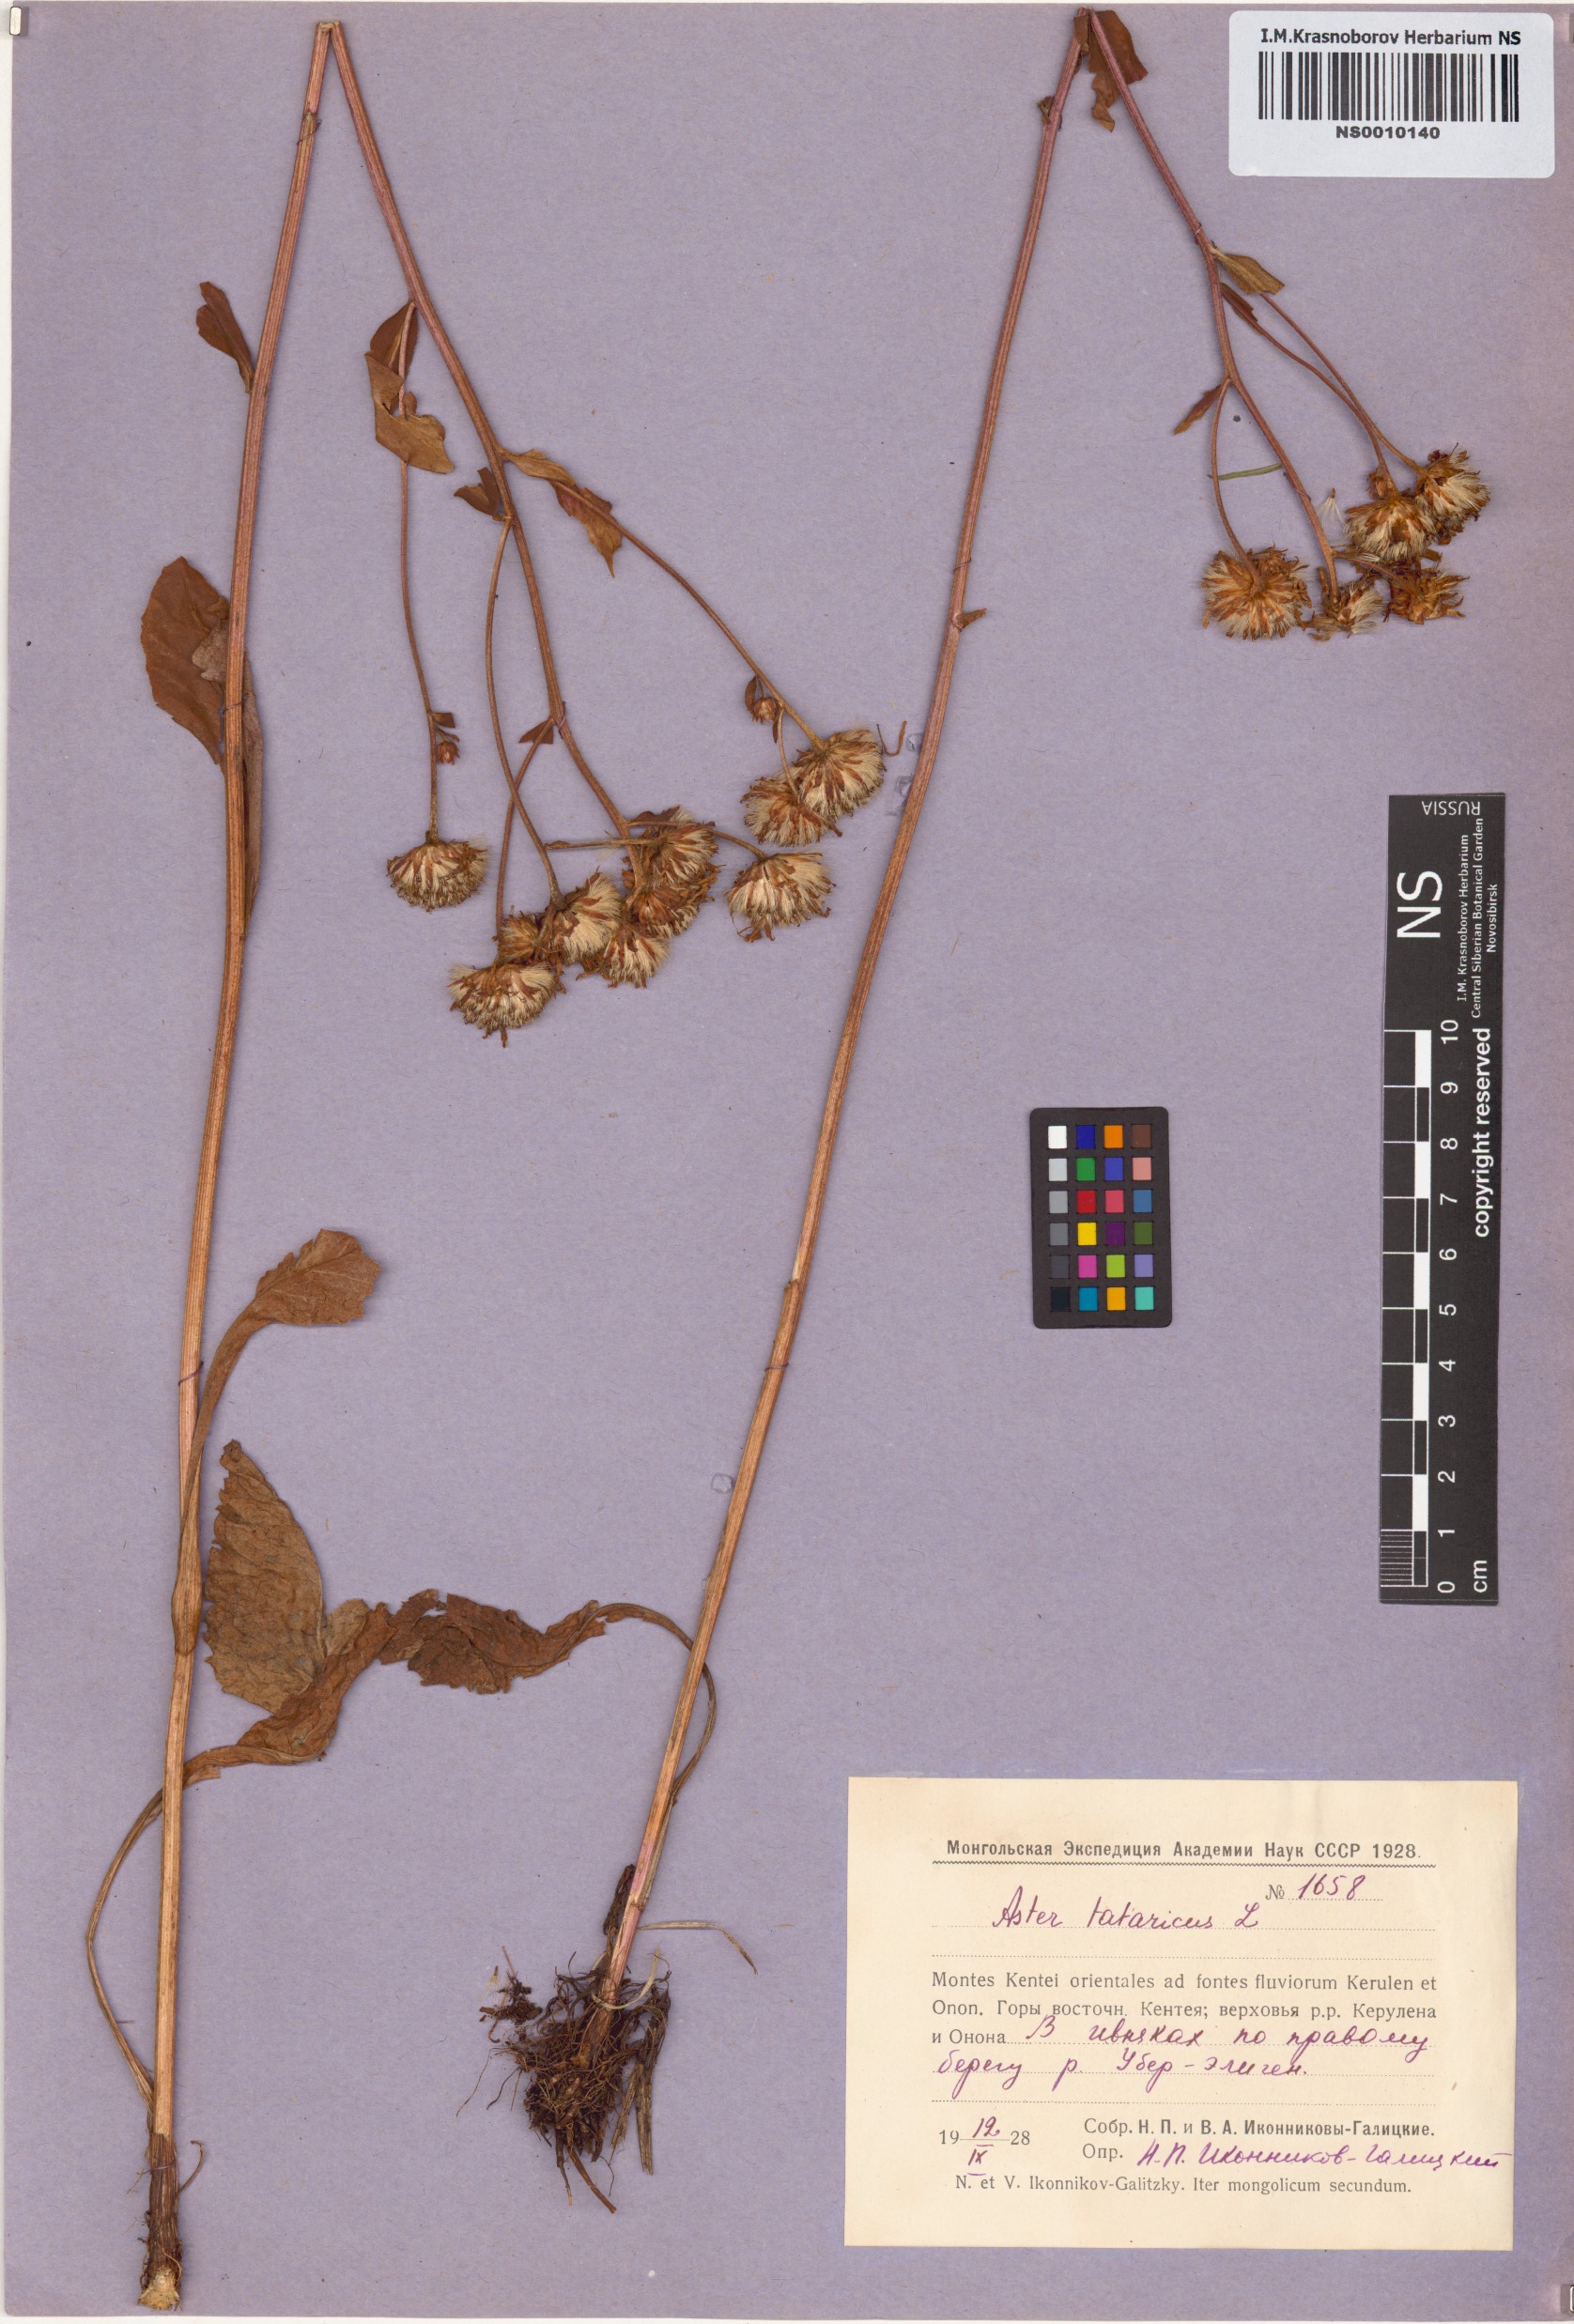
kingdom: Plantae
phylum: Tracheophyta
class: Magnoliopsida
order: Asterales
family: Asteraceae
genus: Aster
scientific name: Aster tataricus
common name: Tatarian aster
